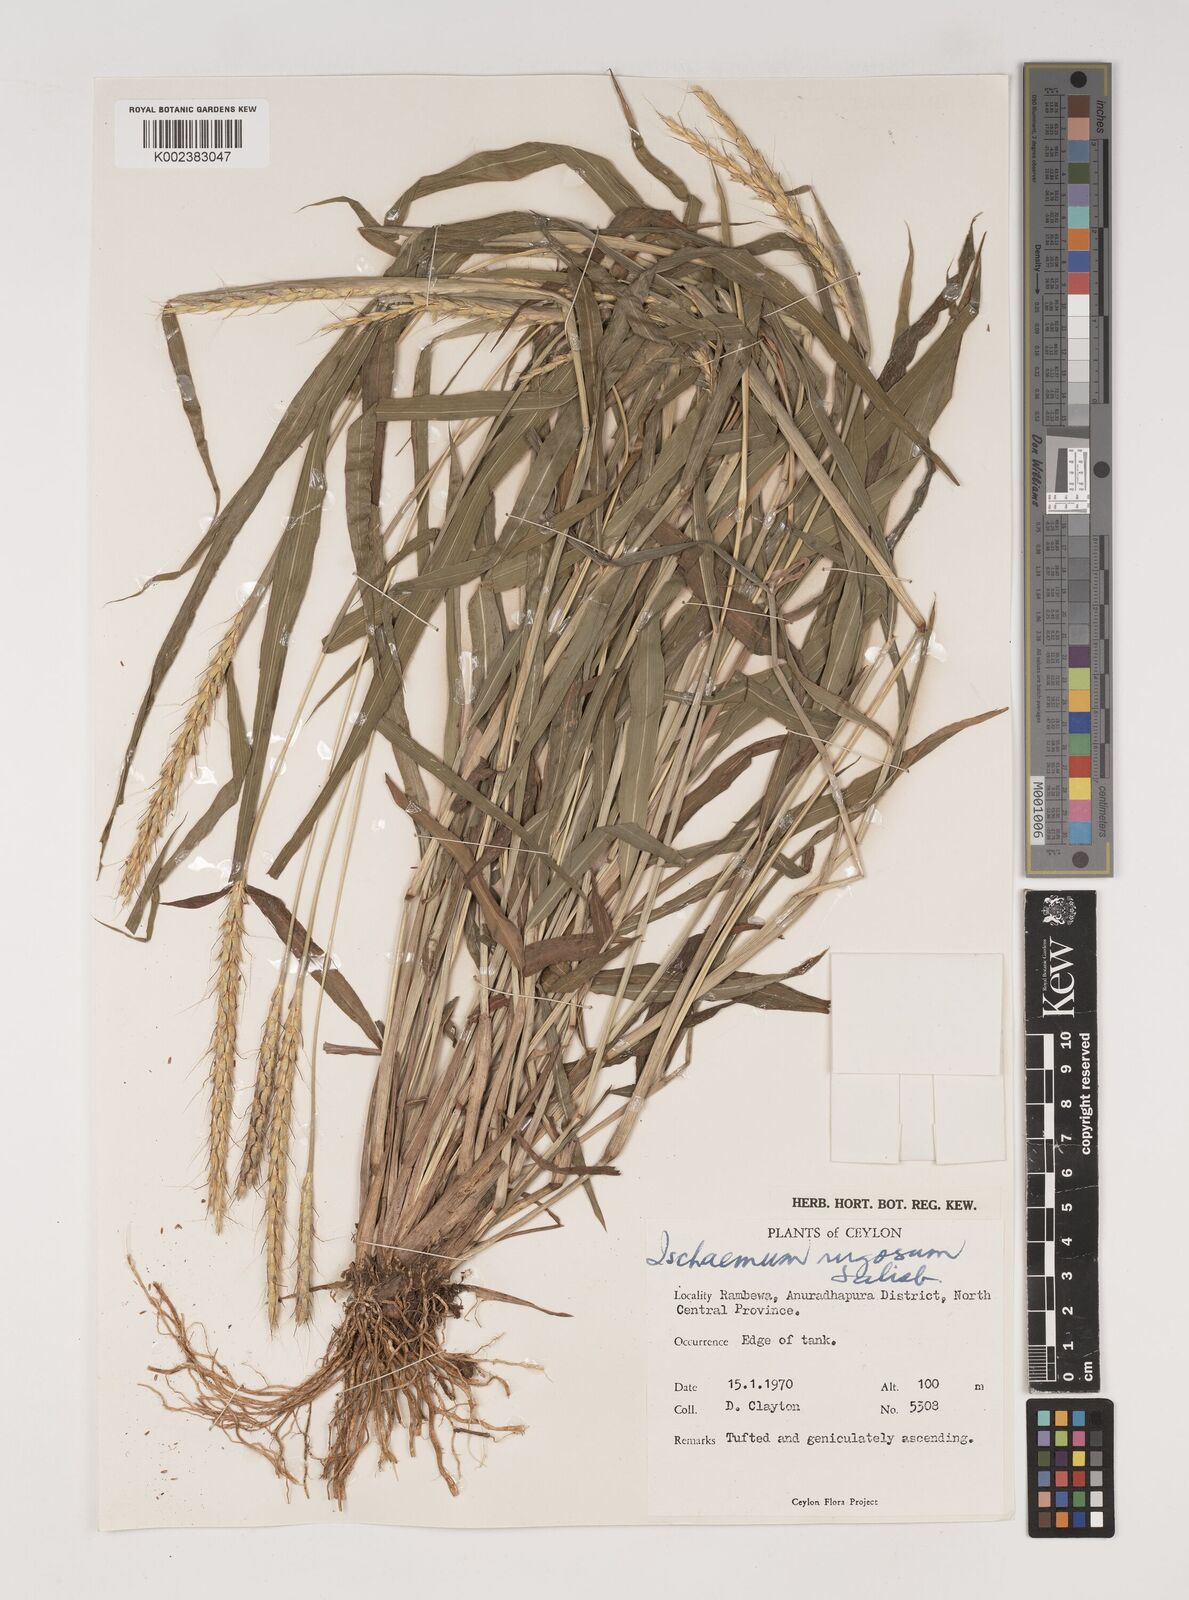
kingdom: Plantae
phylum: Tracheophyta
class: Liliopsida
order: Poales
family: Poaceae
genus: Ischaemum
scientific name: Ischaemum rugosum
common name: Saramatta grass
